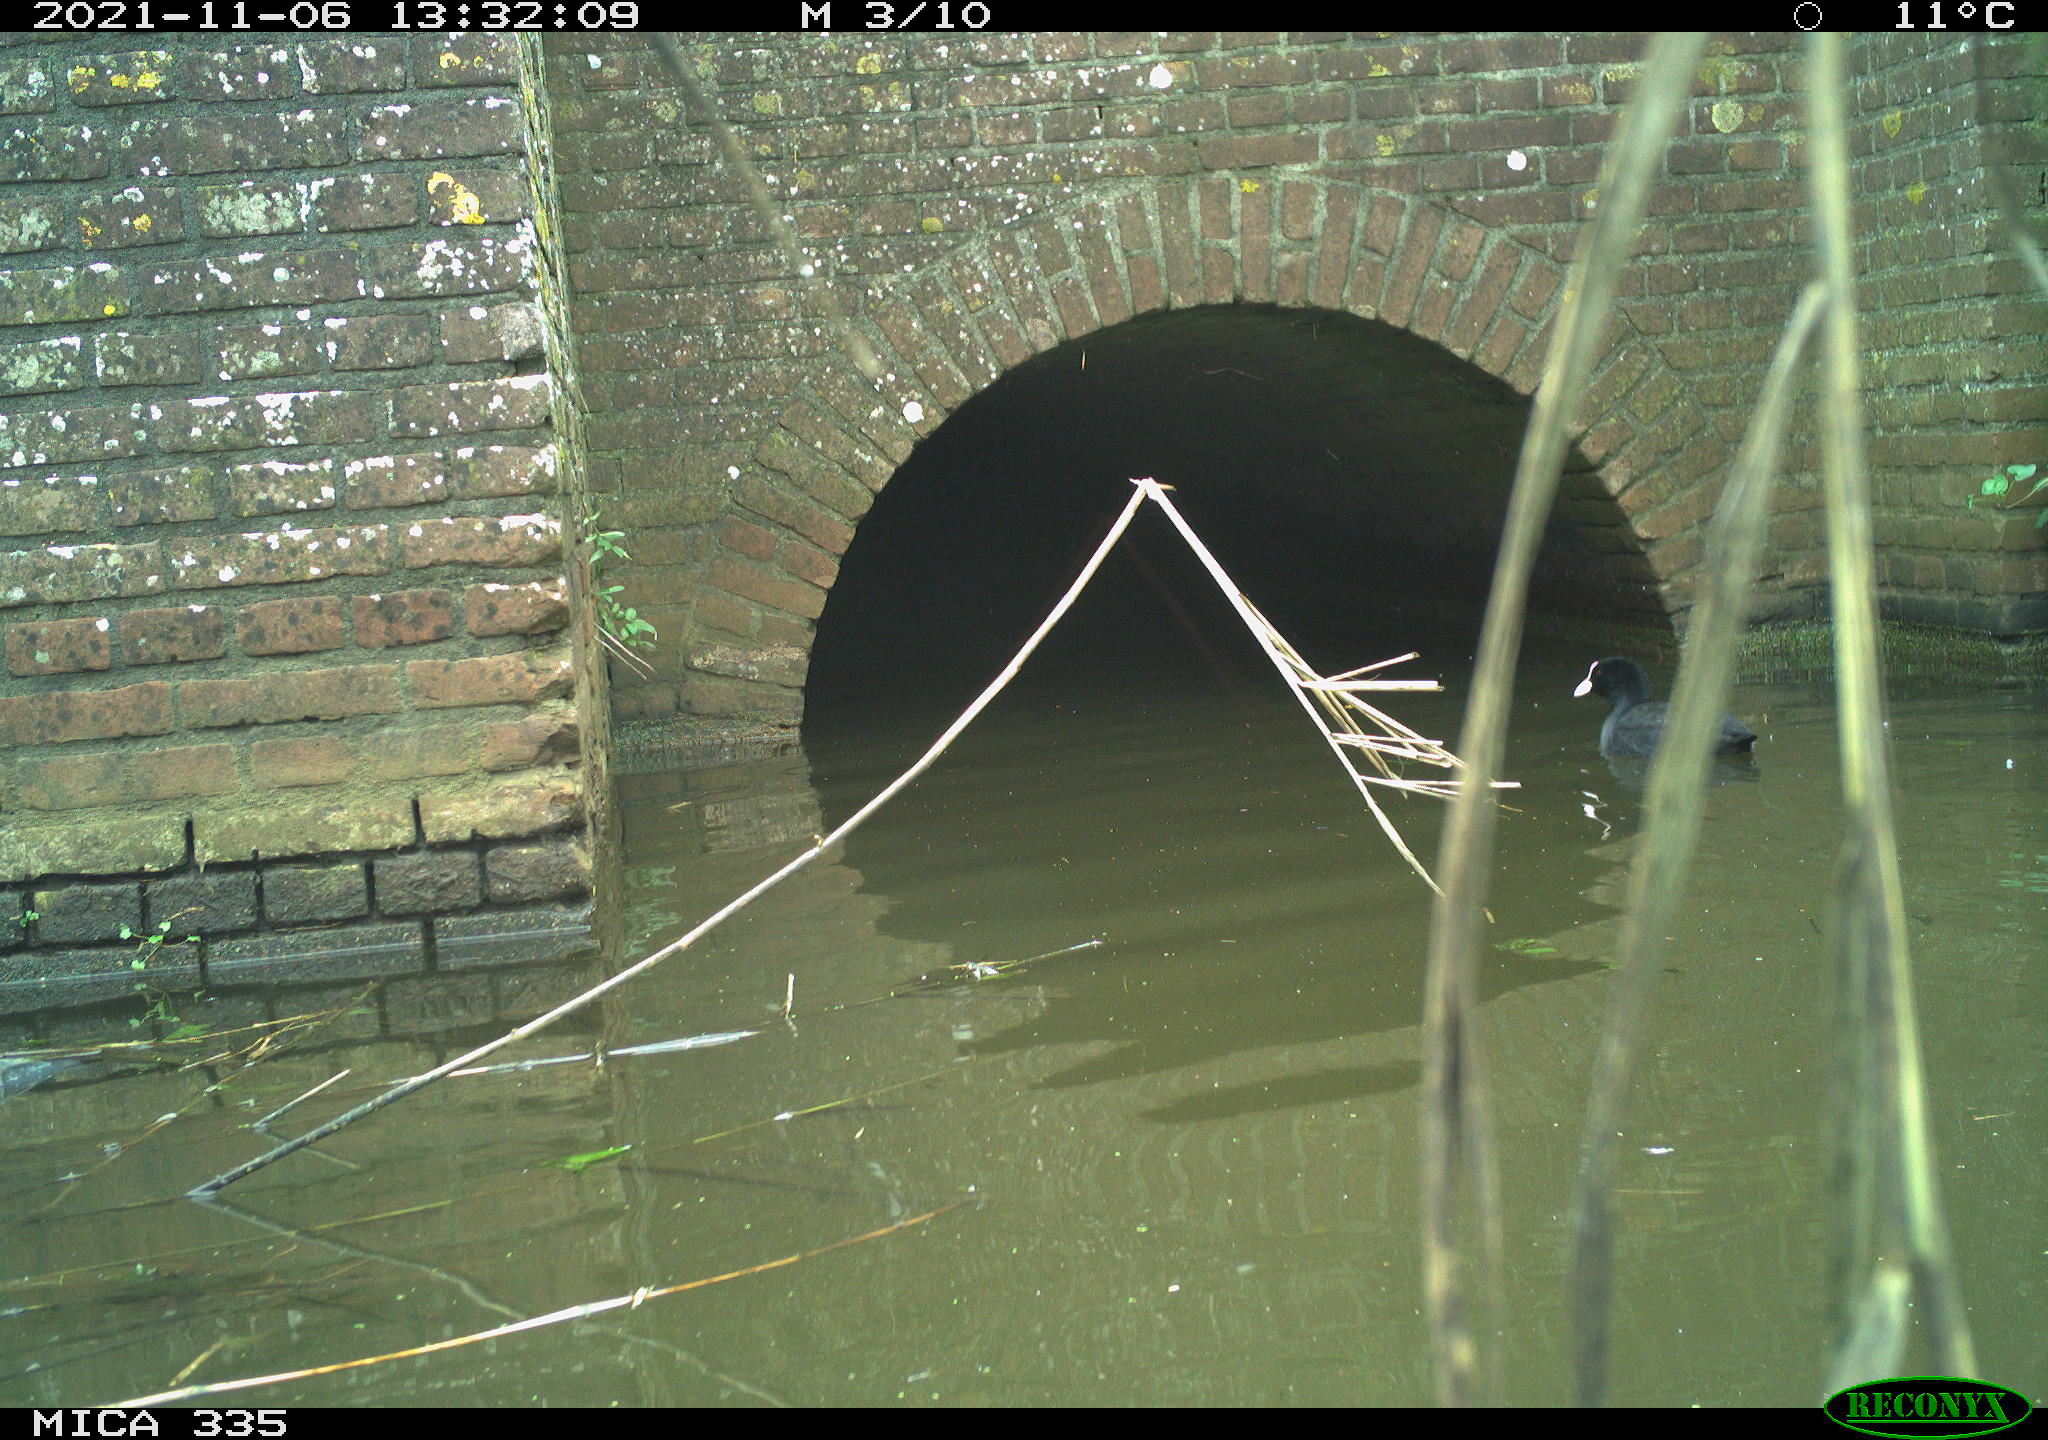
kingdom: Animalia
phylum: Chordata
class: Aves
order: Gruiformes
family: Rallidae
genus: Fulica
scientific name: Fulica atra
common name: Eurasian coot
